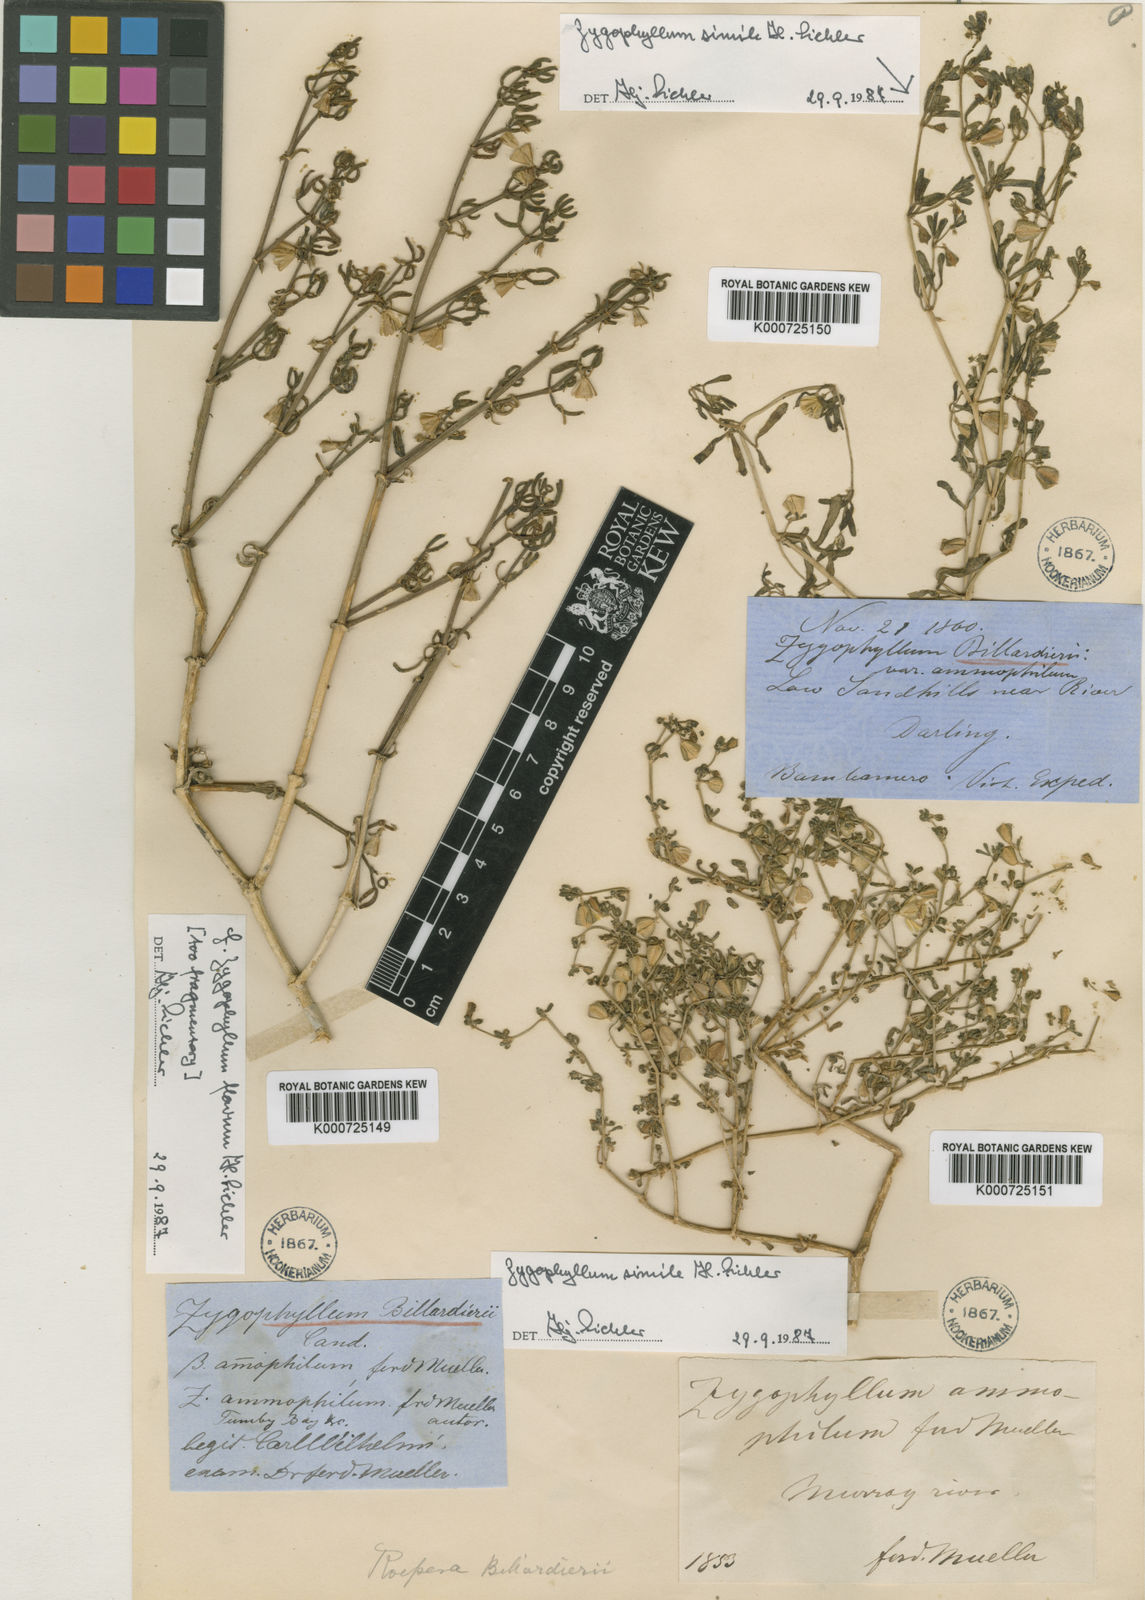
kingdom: Plantae
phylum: Tracheophyta
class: Magnoliopsida
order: Zygophyllales
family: Zygophyllaceae
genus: Roepera
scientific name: Roepera ammophila
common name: Sand twinleaf
